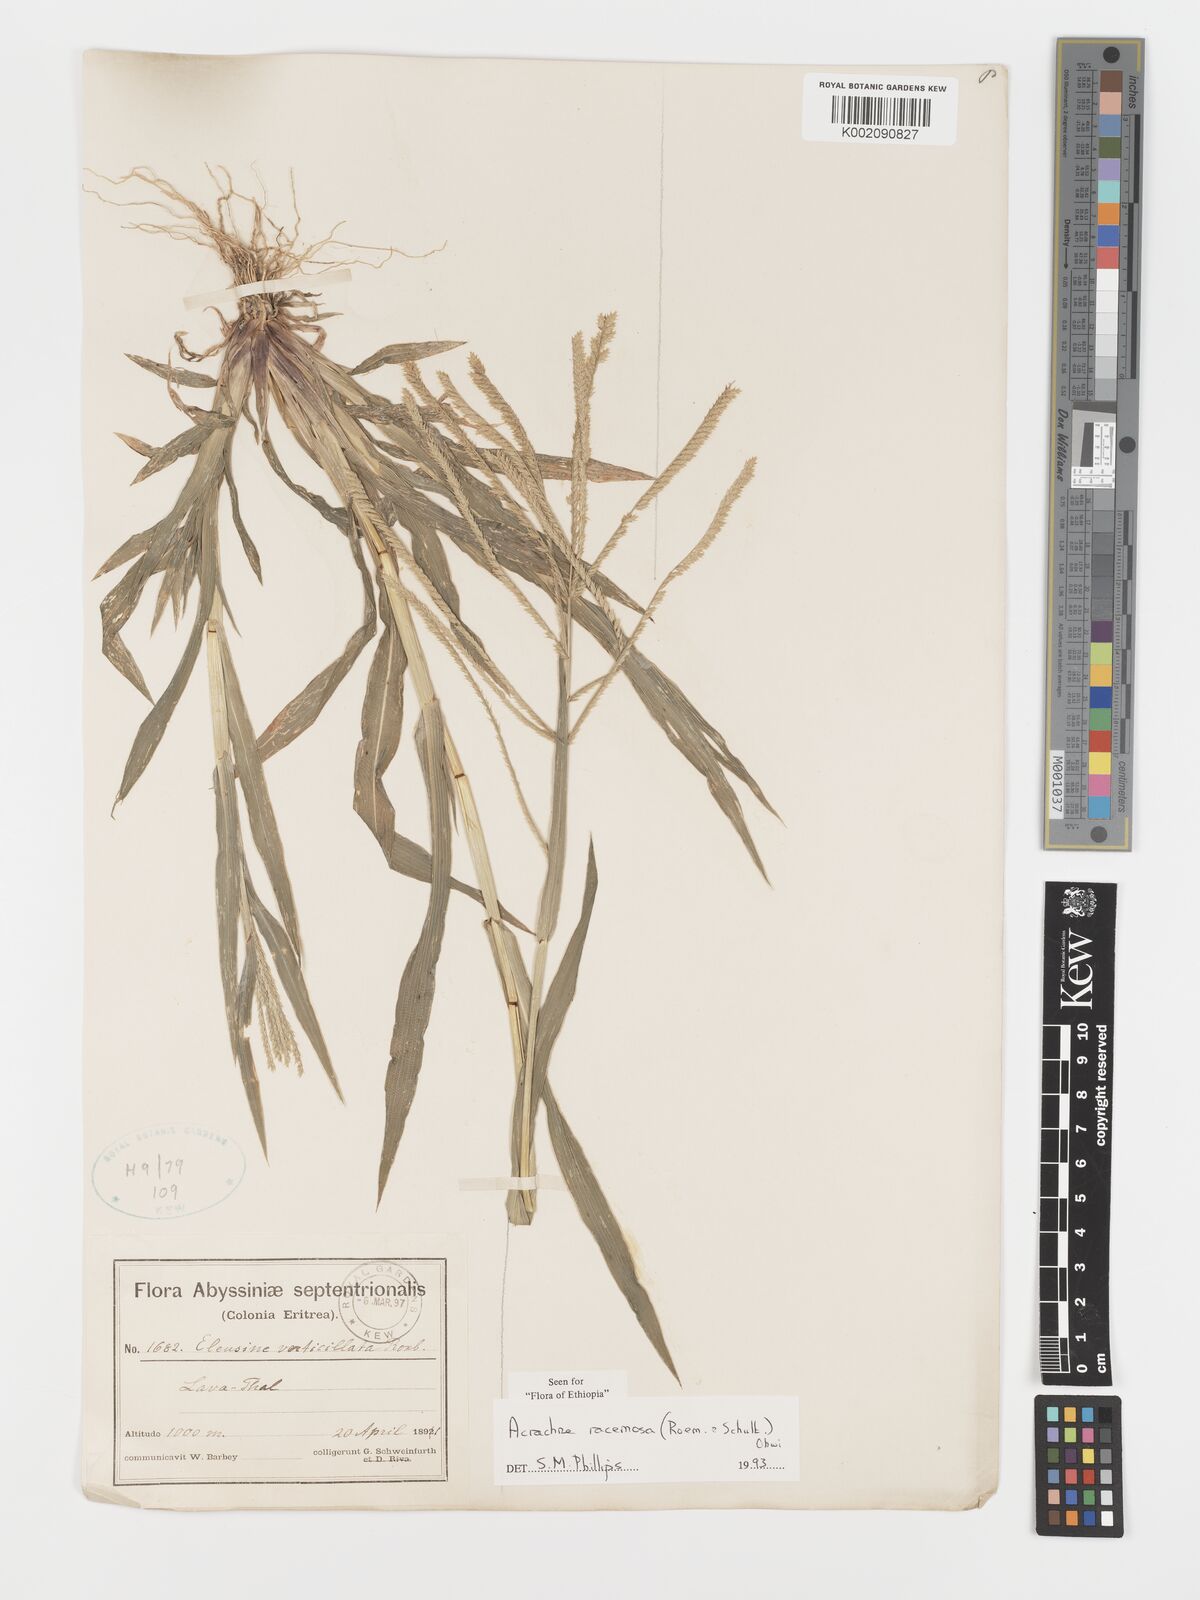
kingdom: Plantae
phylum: Tracheophyta
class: Liliopsida
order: Poales
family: Poaceae
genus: Acrachne
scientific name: Acrachne racemosa
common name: Goosegrass
